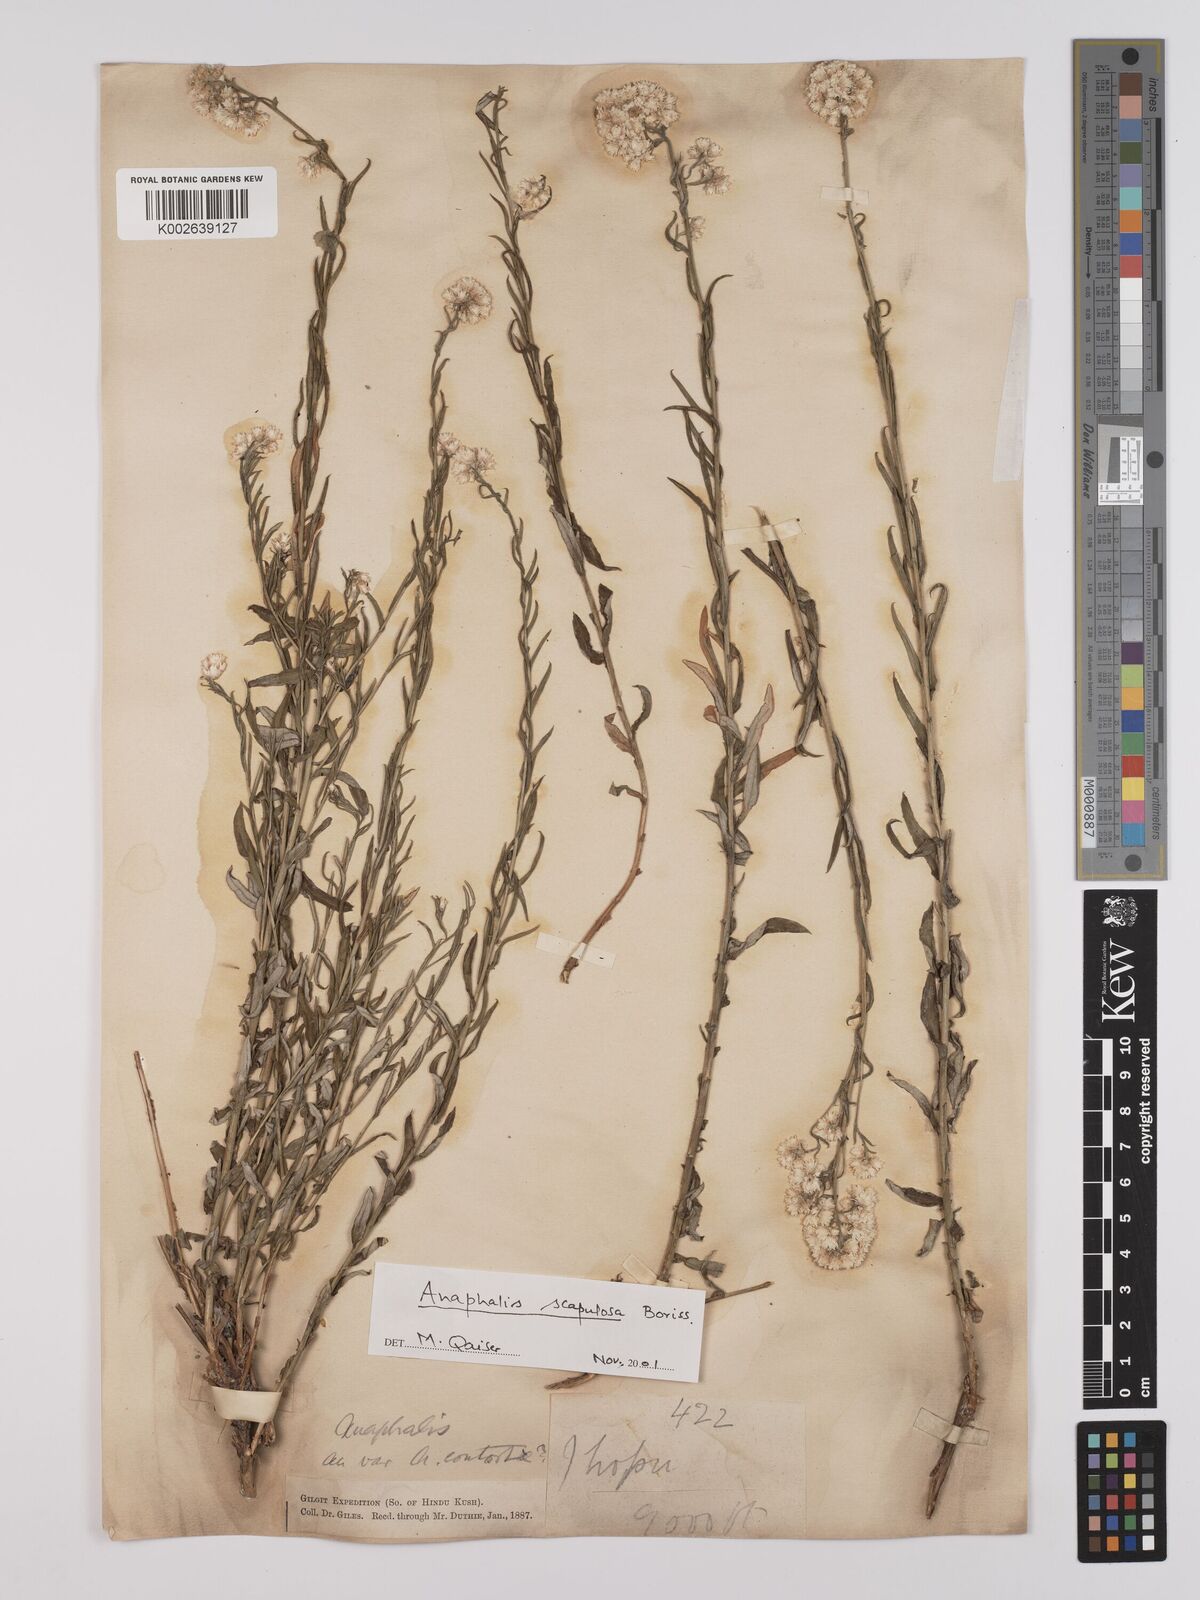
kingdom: Plantae
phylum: Tracheophyta
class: Magnoliopsida
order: Asterales
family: Asteraceae
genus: Anaphalis
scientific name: Anaphalis contorta
